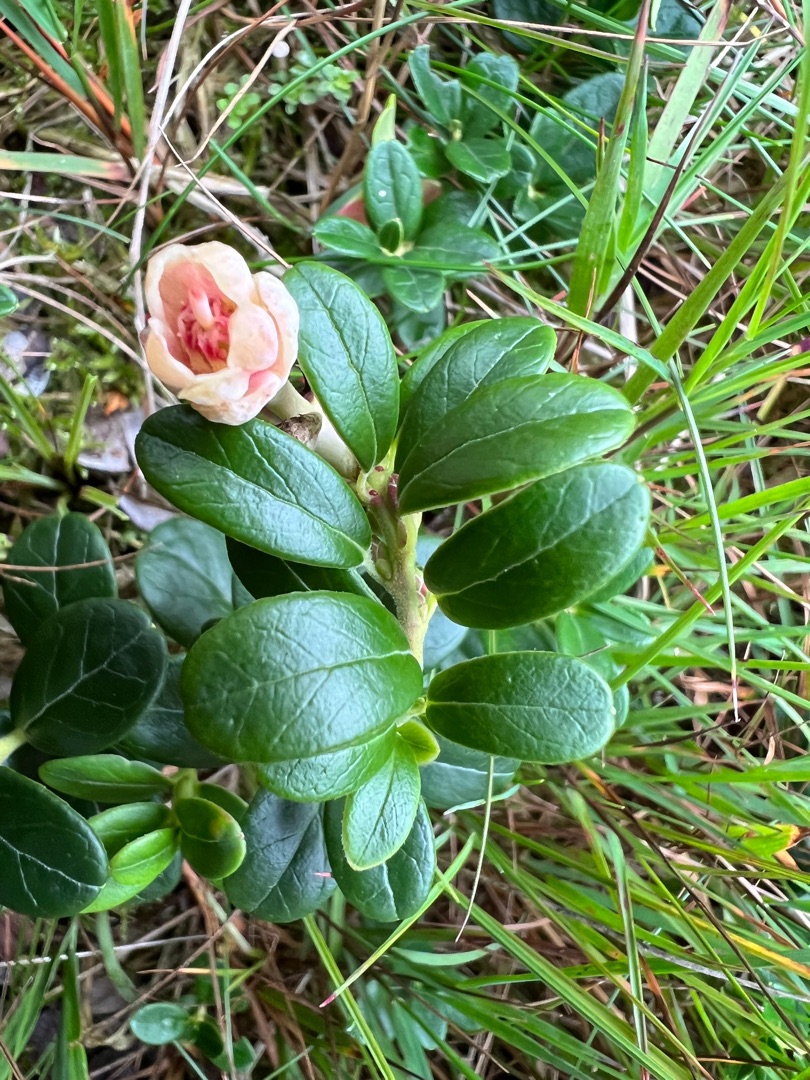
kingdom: Plantae
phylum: Tracheophyta
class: Magnoliopsida
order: Ericales
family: Ericaceae
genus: Vaccinium
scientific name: Vaccinium vitis-idaea
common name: Tyttebær
